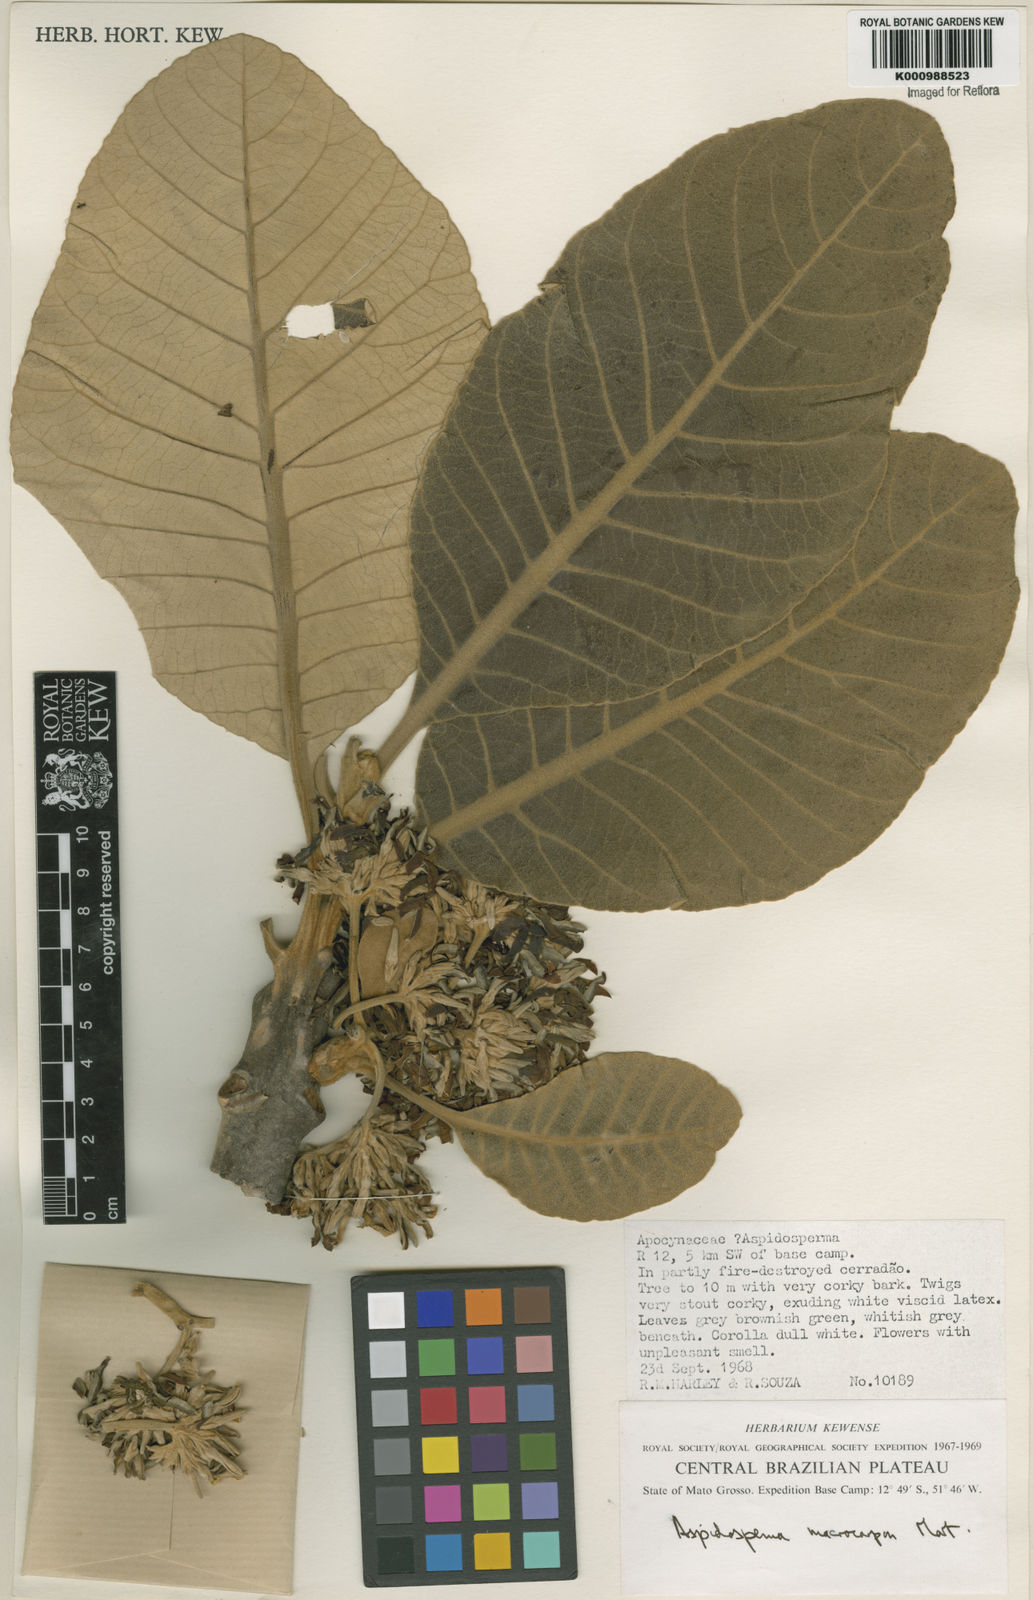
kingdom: Plantae
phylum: Tracheophyta
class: Magnoliopsida
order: Gentianales
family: Apocynaceae
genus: Aspidosperma
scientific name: Aspidosperma macrocarpon
